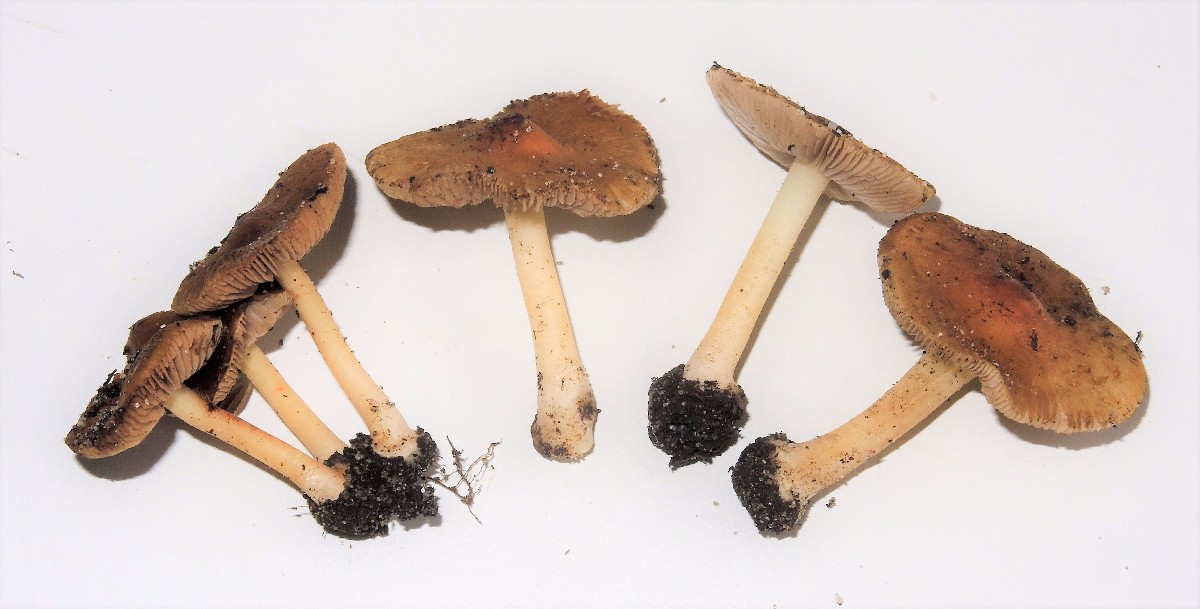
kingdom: Fungi
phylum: Basidiomycota
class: Agaricomycetes
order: Agaricales
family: Inocybaceae
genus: Inocybe
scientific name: Inocybe
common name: trævlhat
